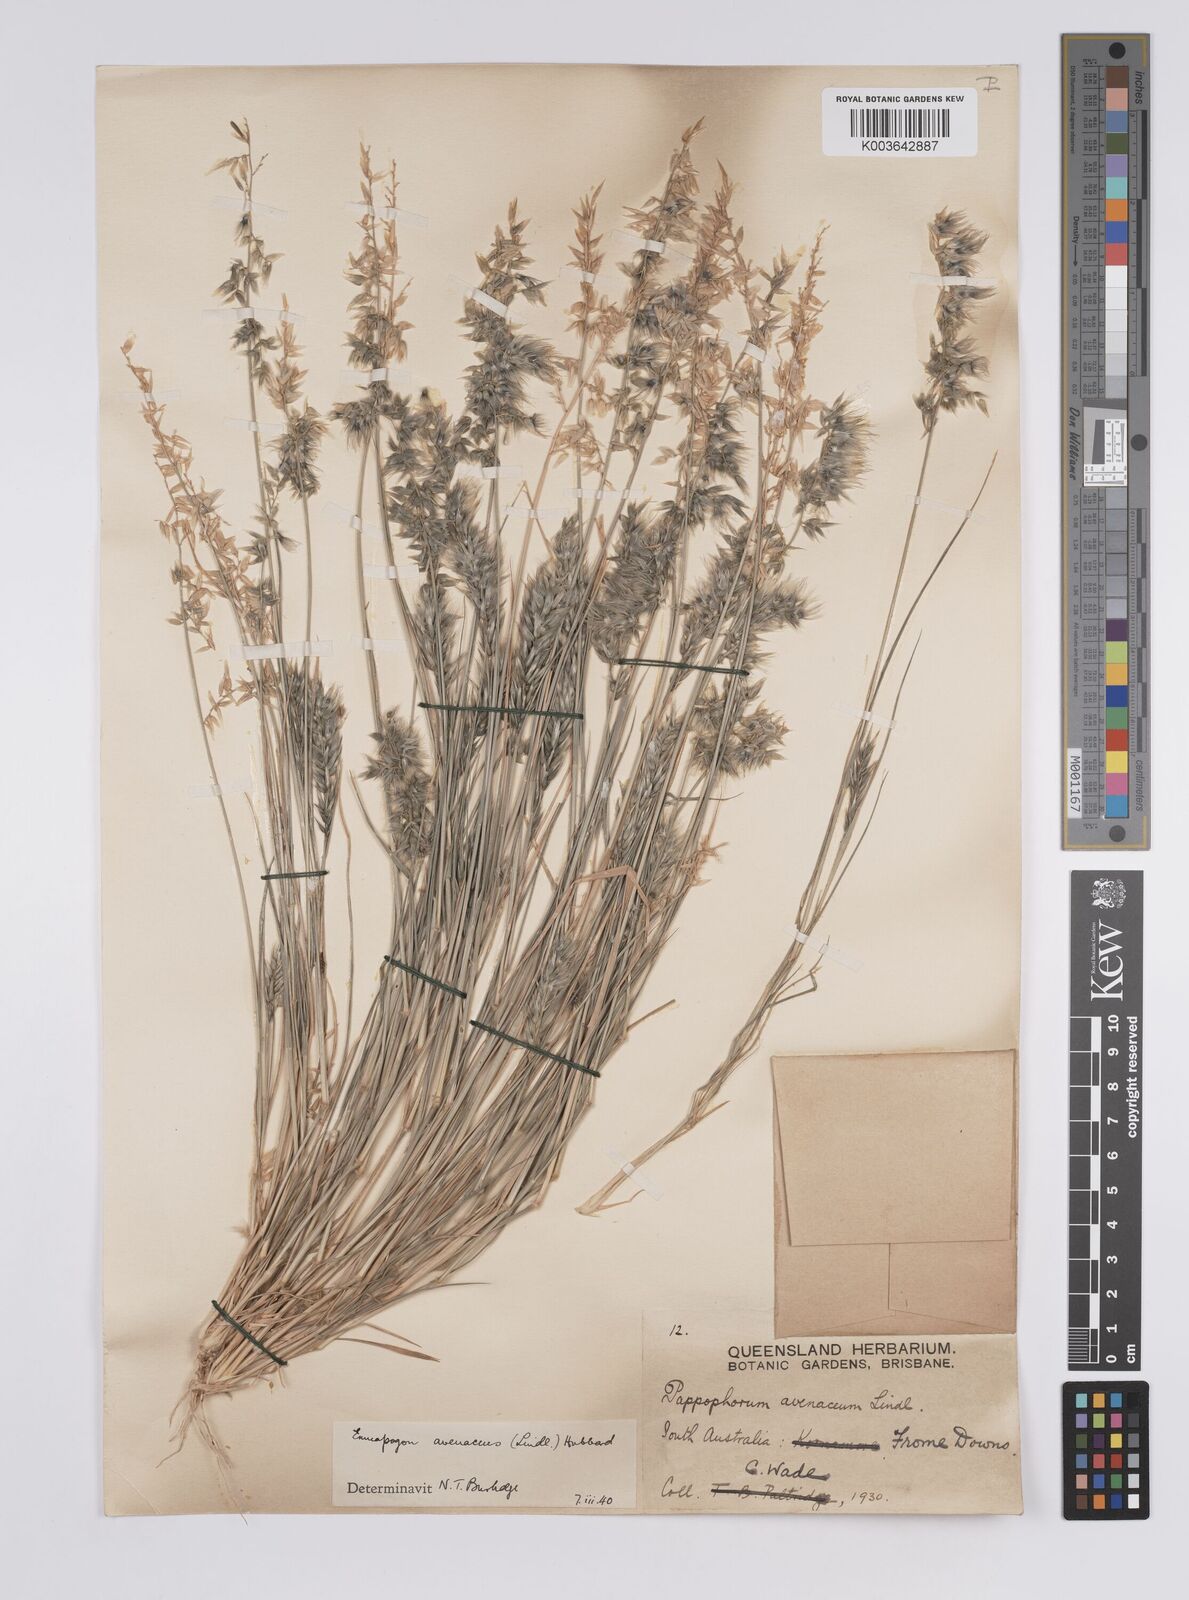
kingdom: Plantae
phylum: Tracheophyta
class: Liliopsida
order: Poales
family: Poaceae
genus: Enneapogon
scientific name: Enneapogon avenaceus
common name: Hairy oat grass
